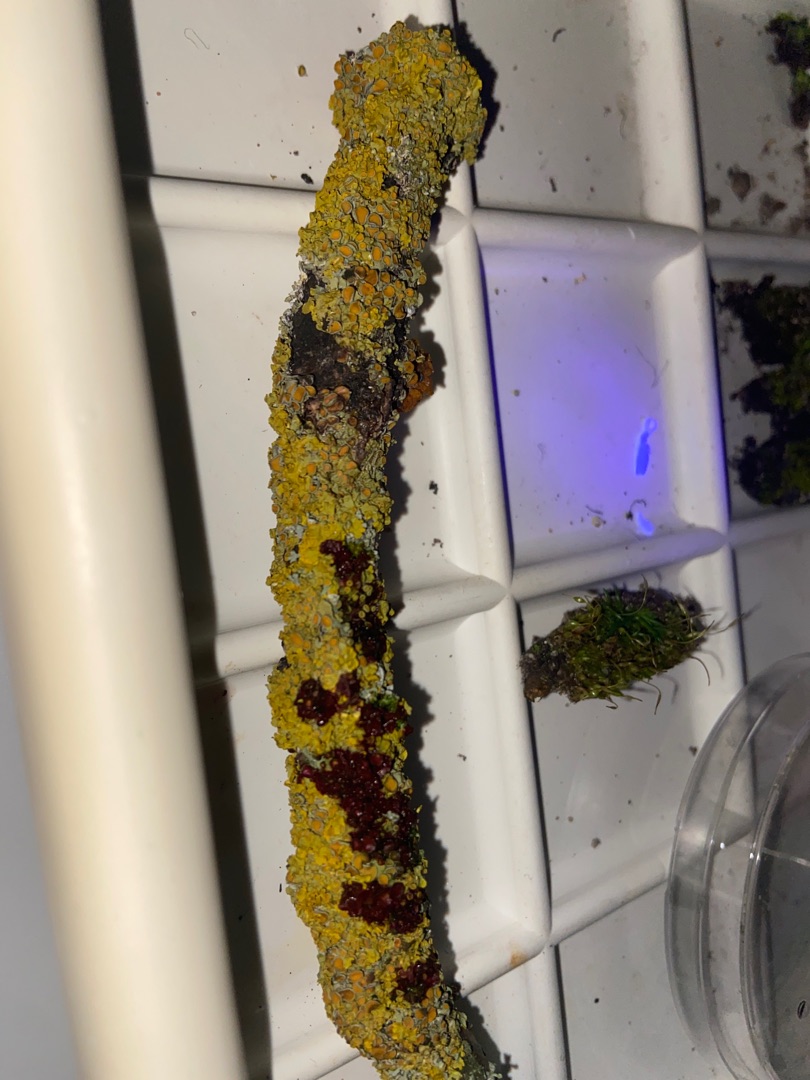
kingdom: Fungi
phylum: Ascomycota
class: Lecanoromycetes
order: Teloschistales
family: Teloschistaceae
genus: Xanthoria
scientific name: Xanthoria parietina
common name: Almindelig væggelav
